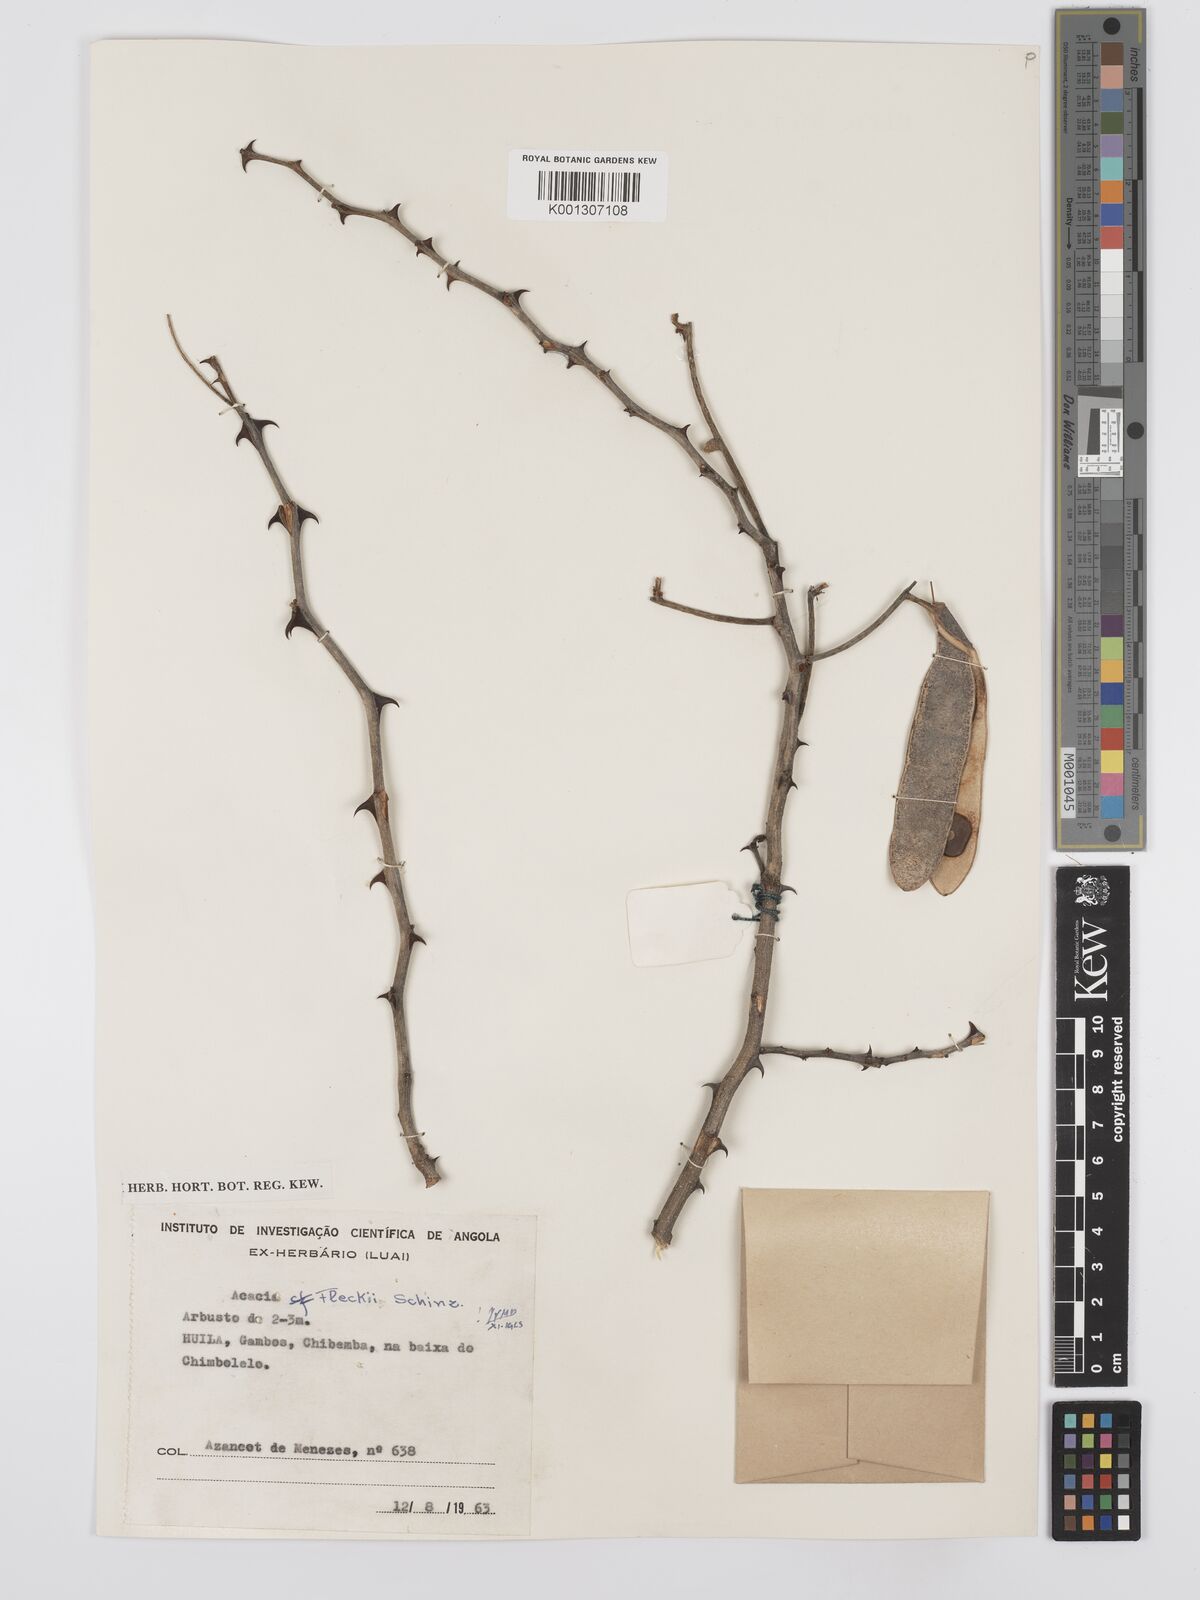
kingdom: Plantae
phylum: Tracheophyta
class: Magnoliopsida
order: Fabales
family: Fabaceae
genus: Senegalia
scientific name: Senegalia fleckii
